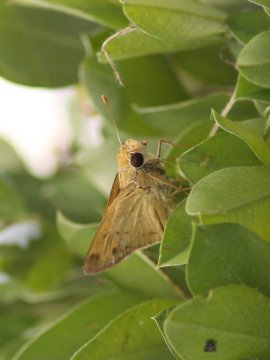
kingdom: Animalia
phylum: Arthropoda
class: Insecta
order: Lepidoptera
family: Hesperiidae
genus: Polites
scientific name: Polites
